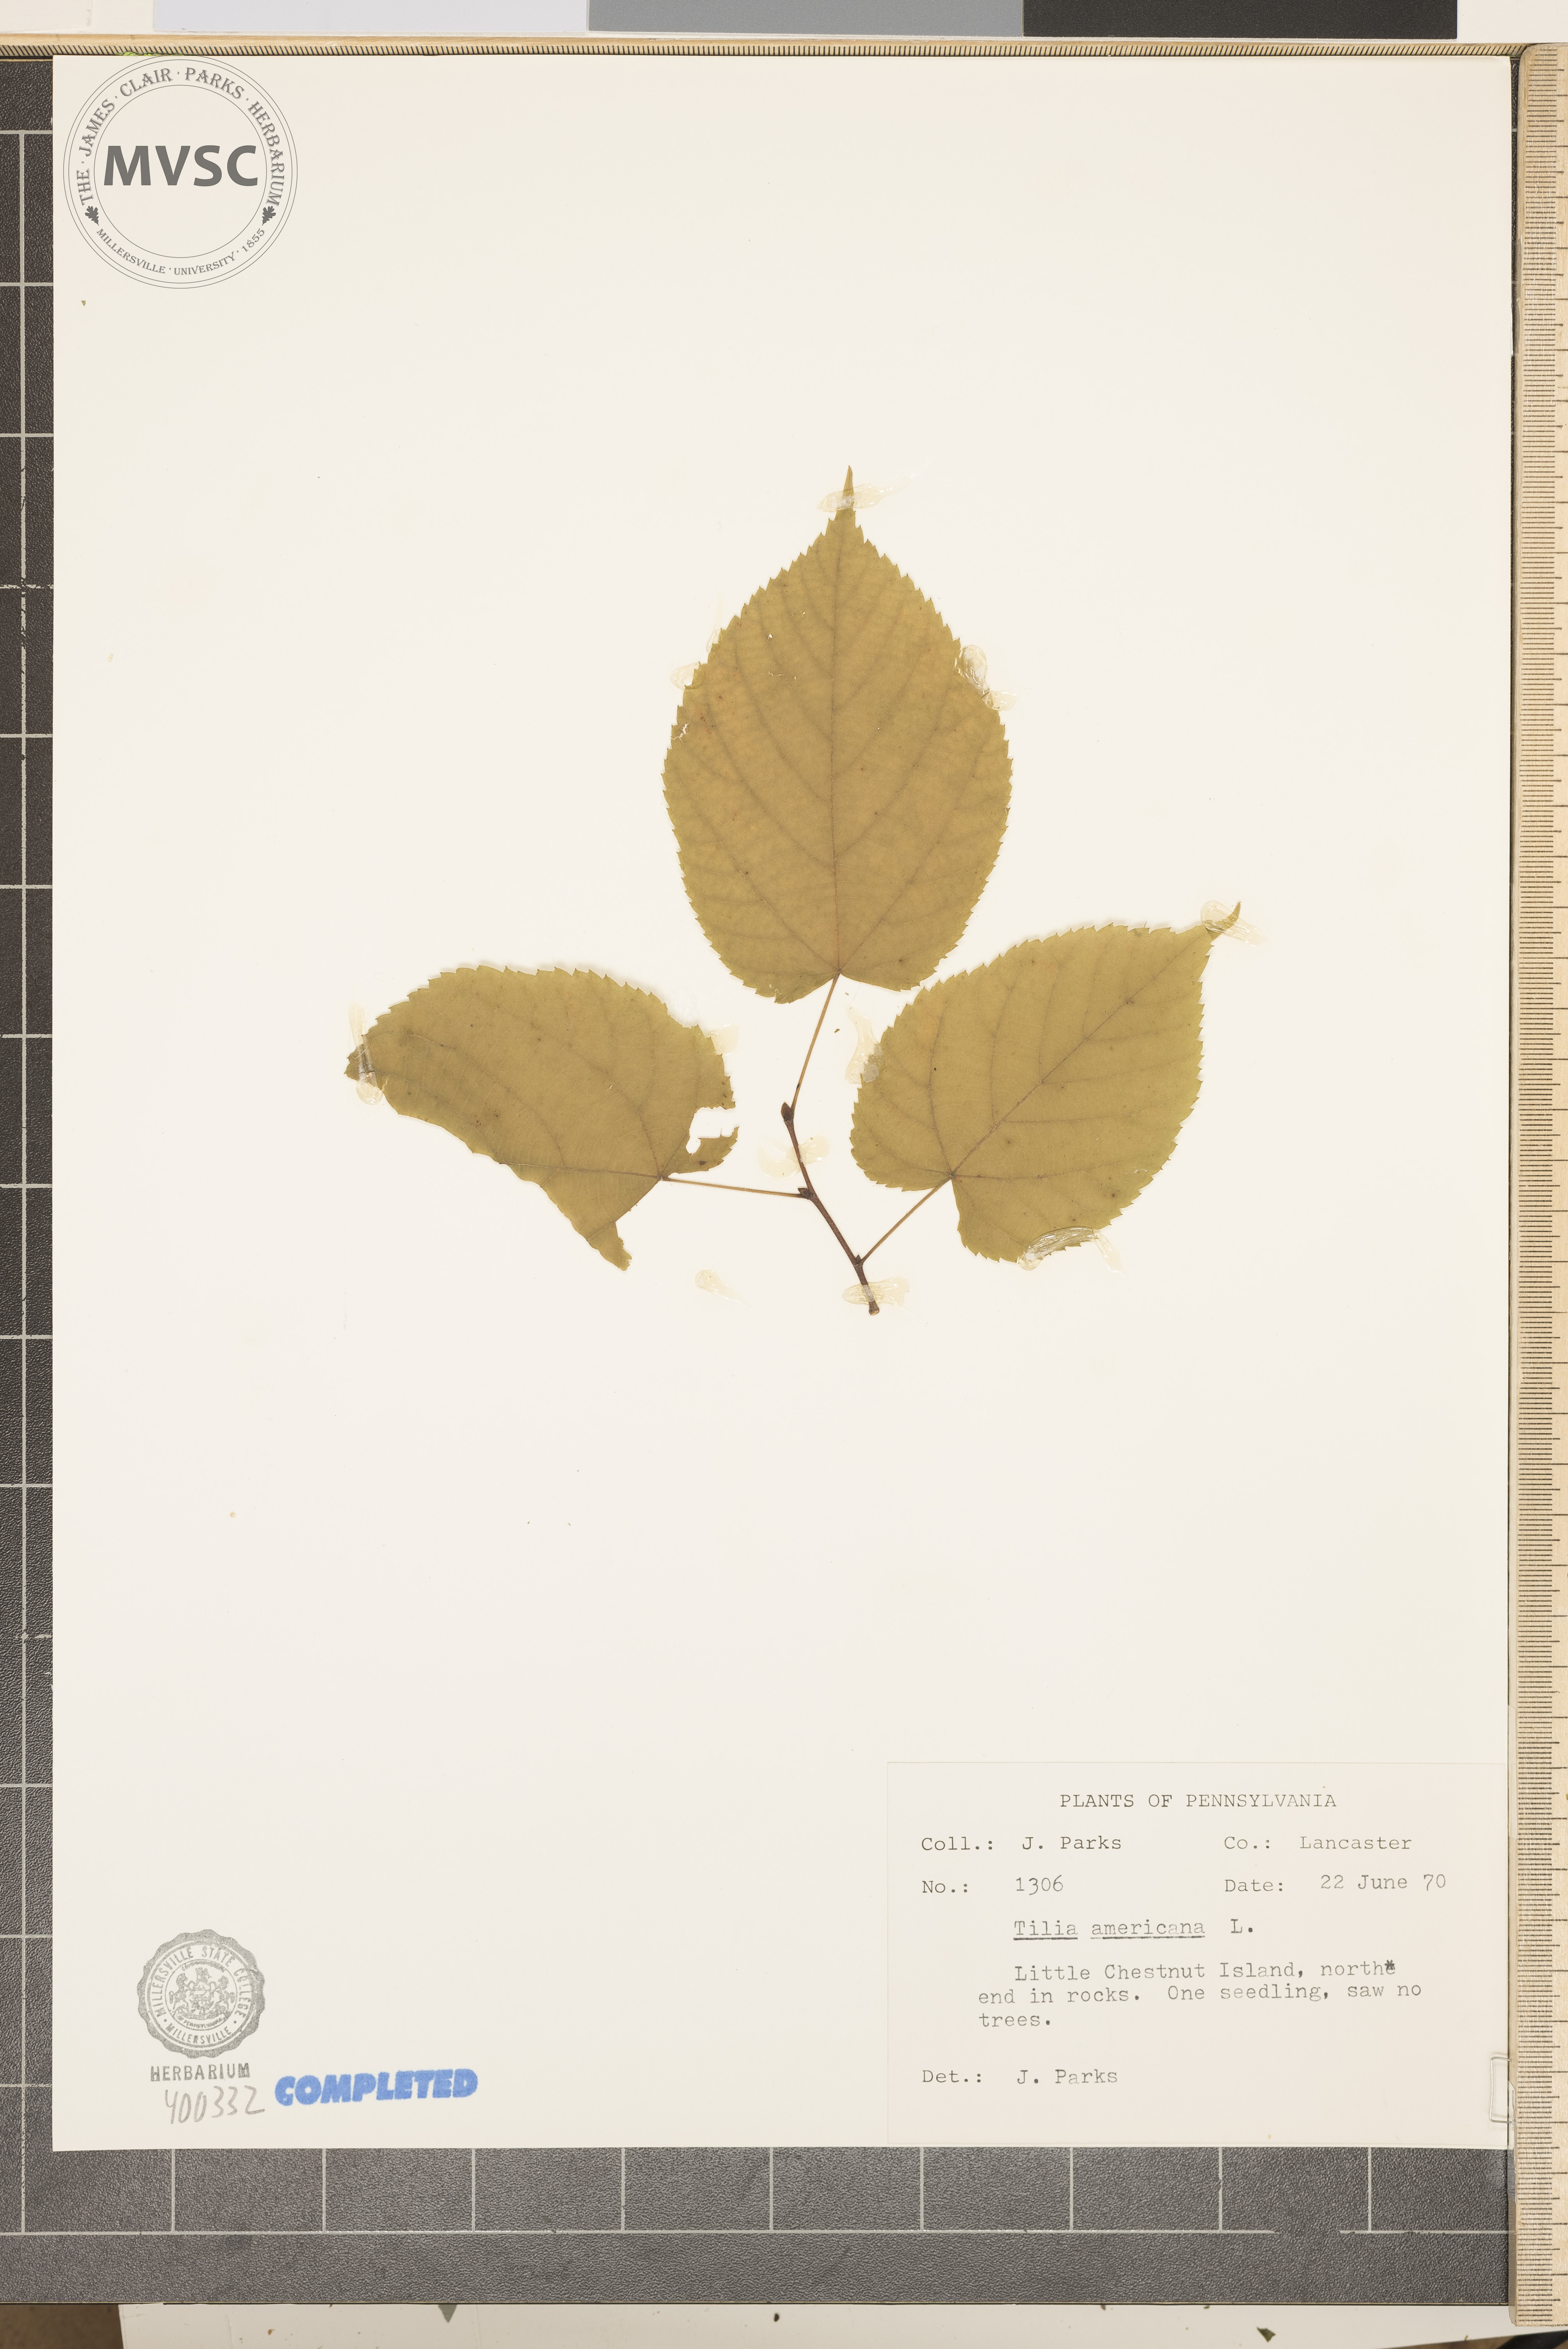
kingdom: Plantae
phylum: Tracheophyta
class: Magnoliopsida
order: Malvales
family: Malvaceae
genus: Tilia
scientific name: Tilia americana
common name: American basswood
